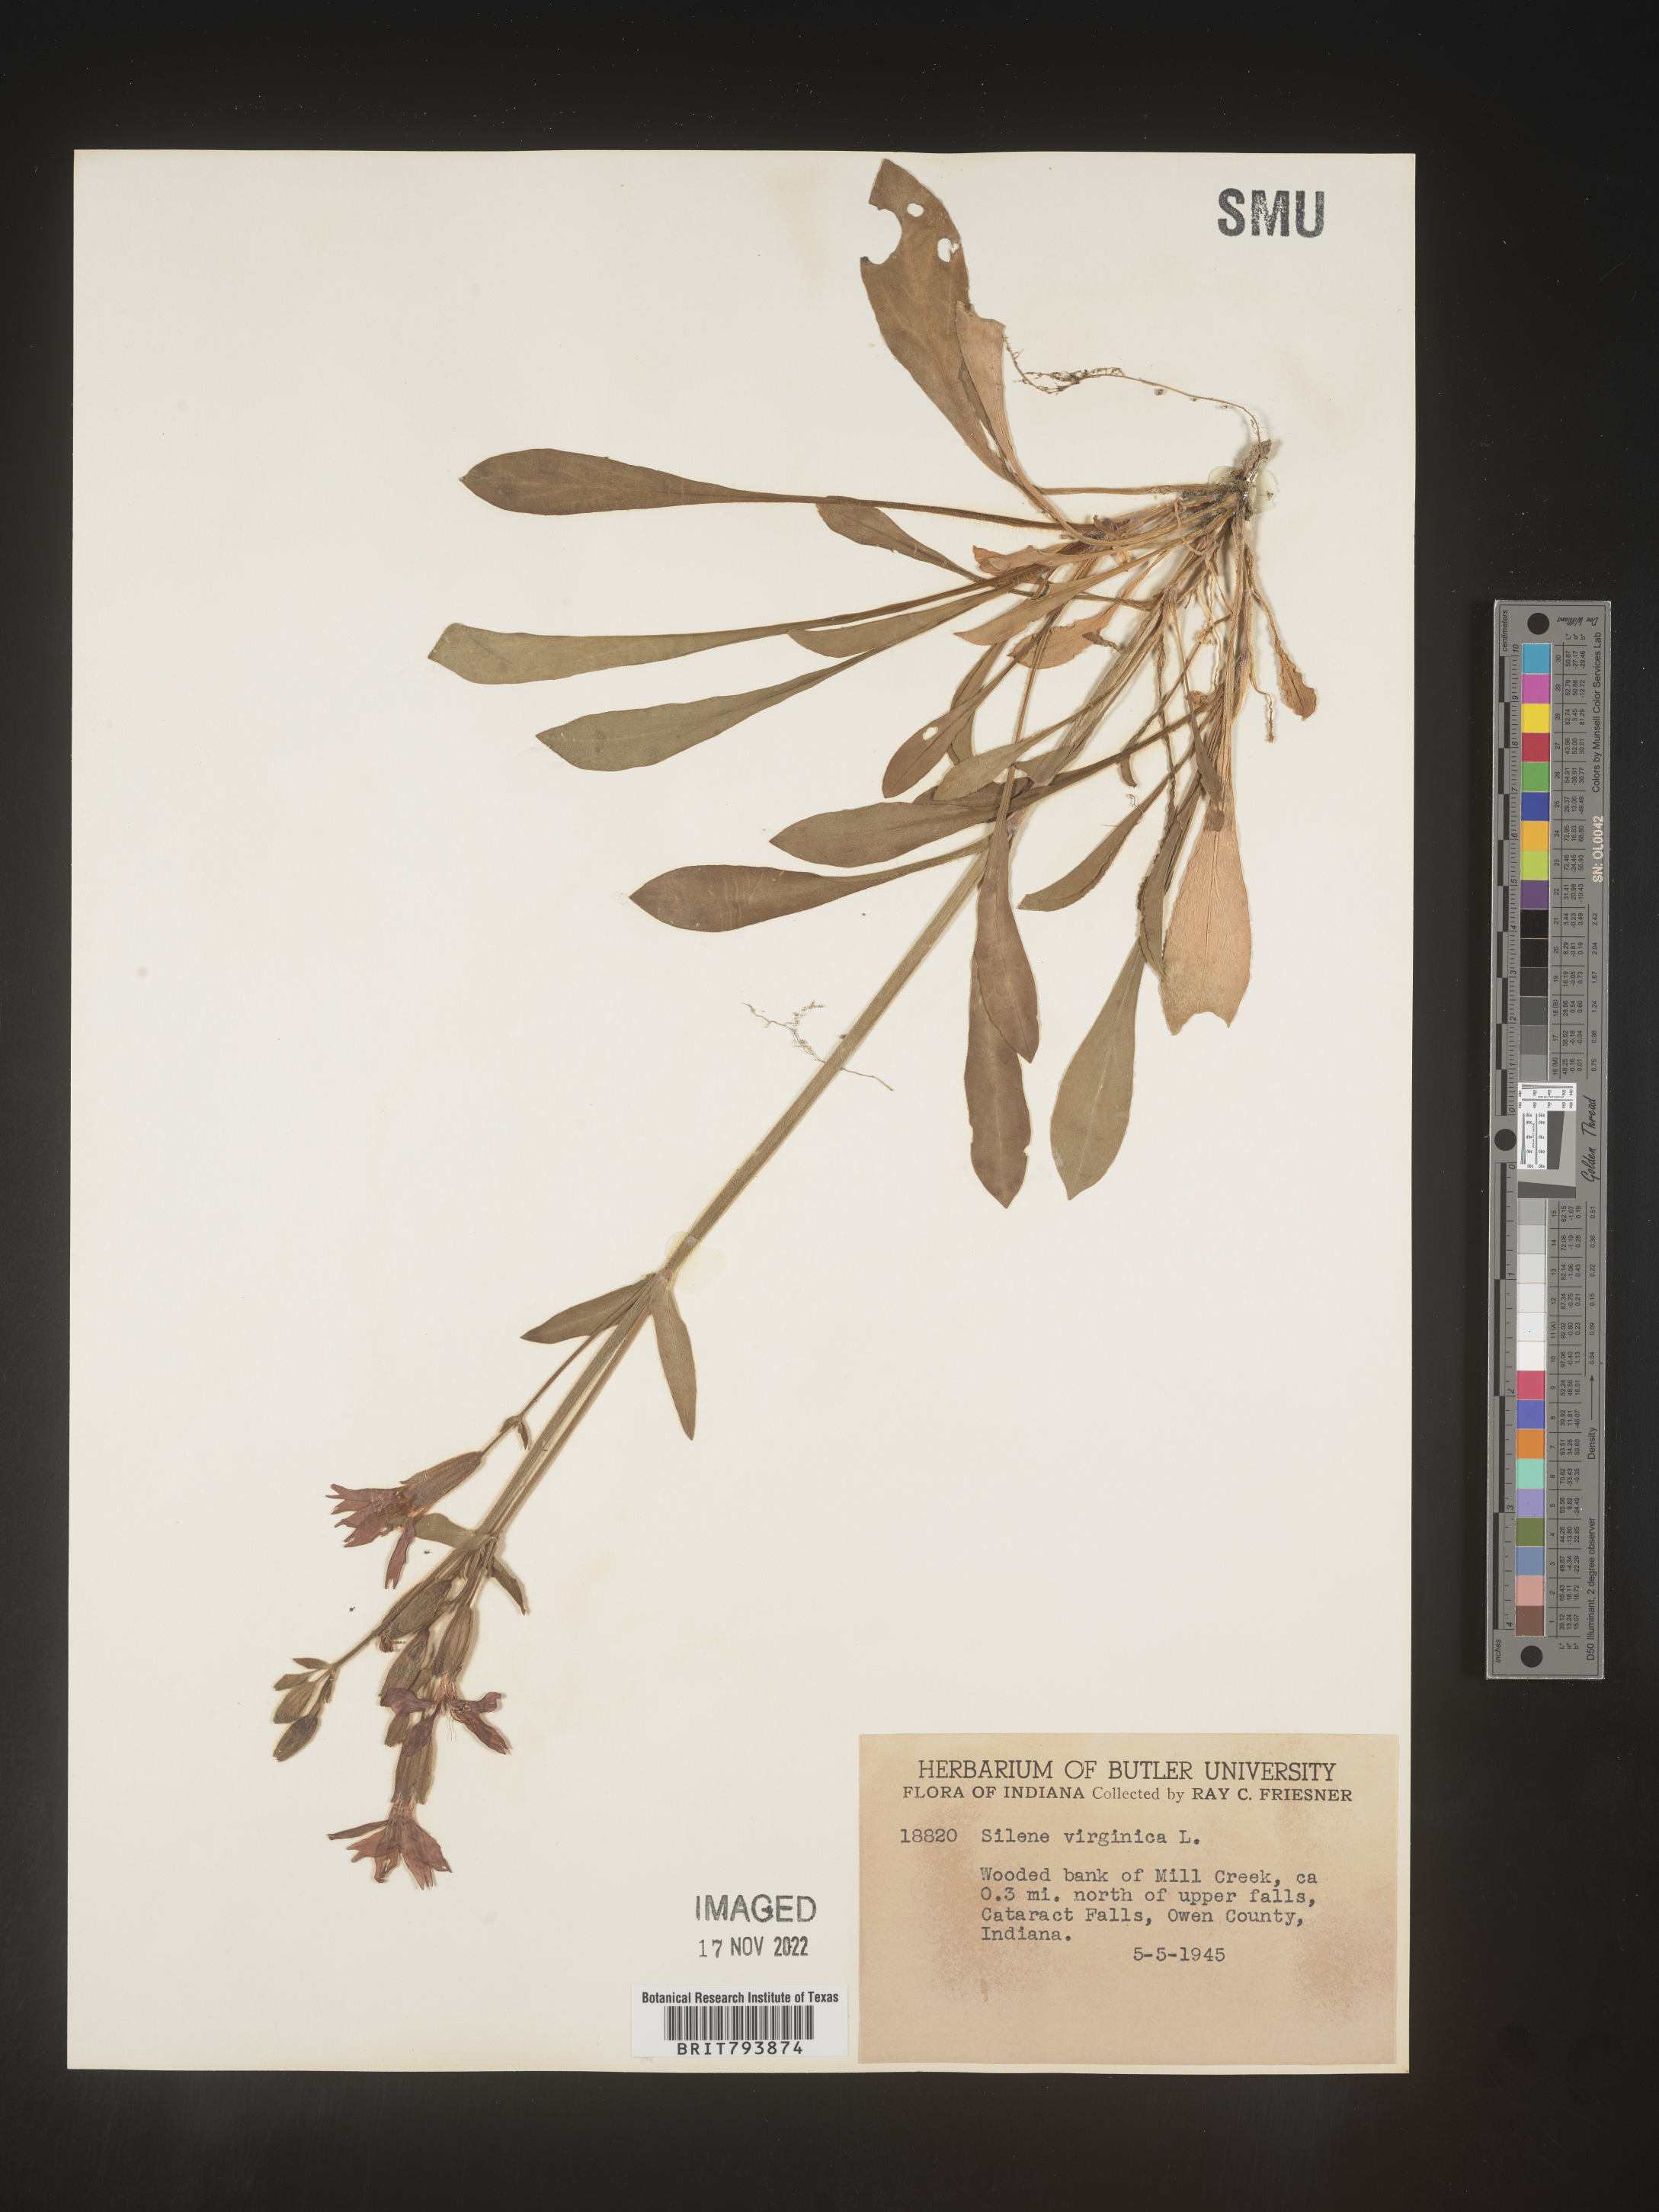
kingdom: Plantae
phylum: Tracheophyta
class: Magnoliopsida
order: Caryophyllales
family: Caryophyllaceae
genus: Silene
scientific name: Silene virginica
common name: Fire-pink
